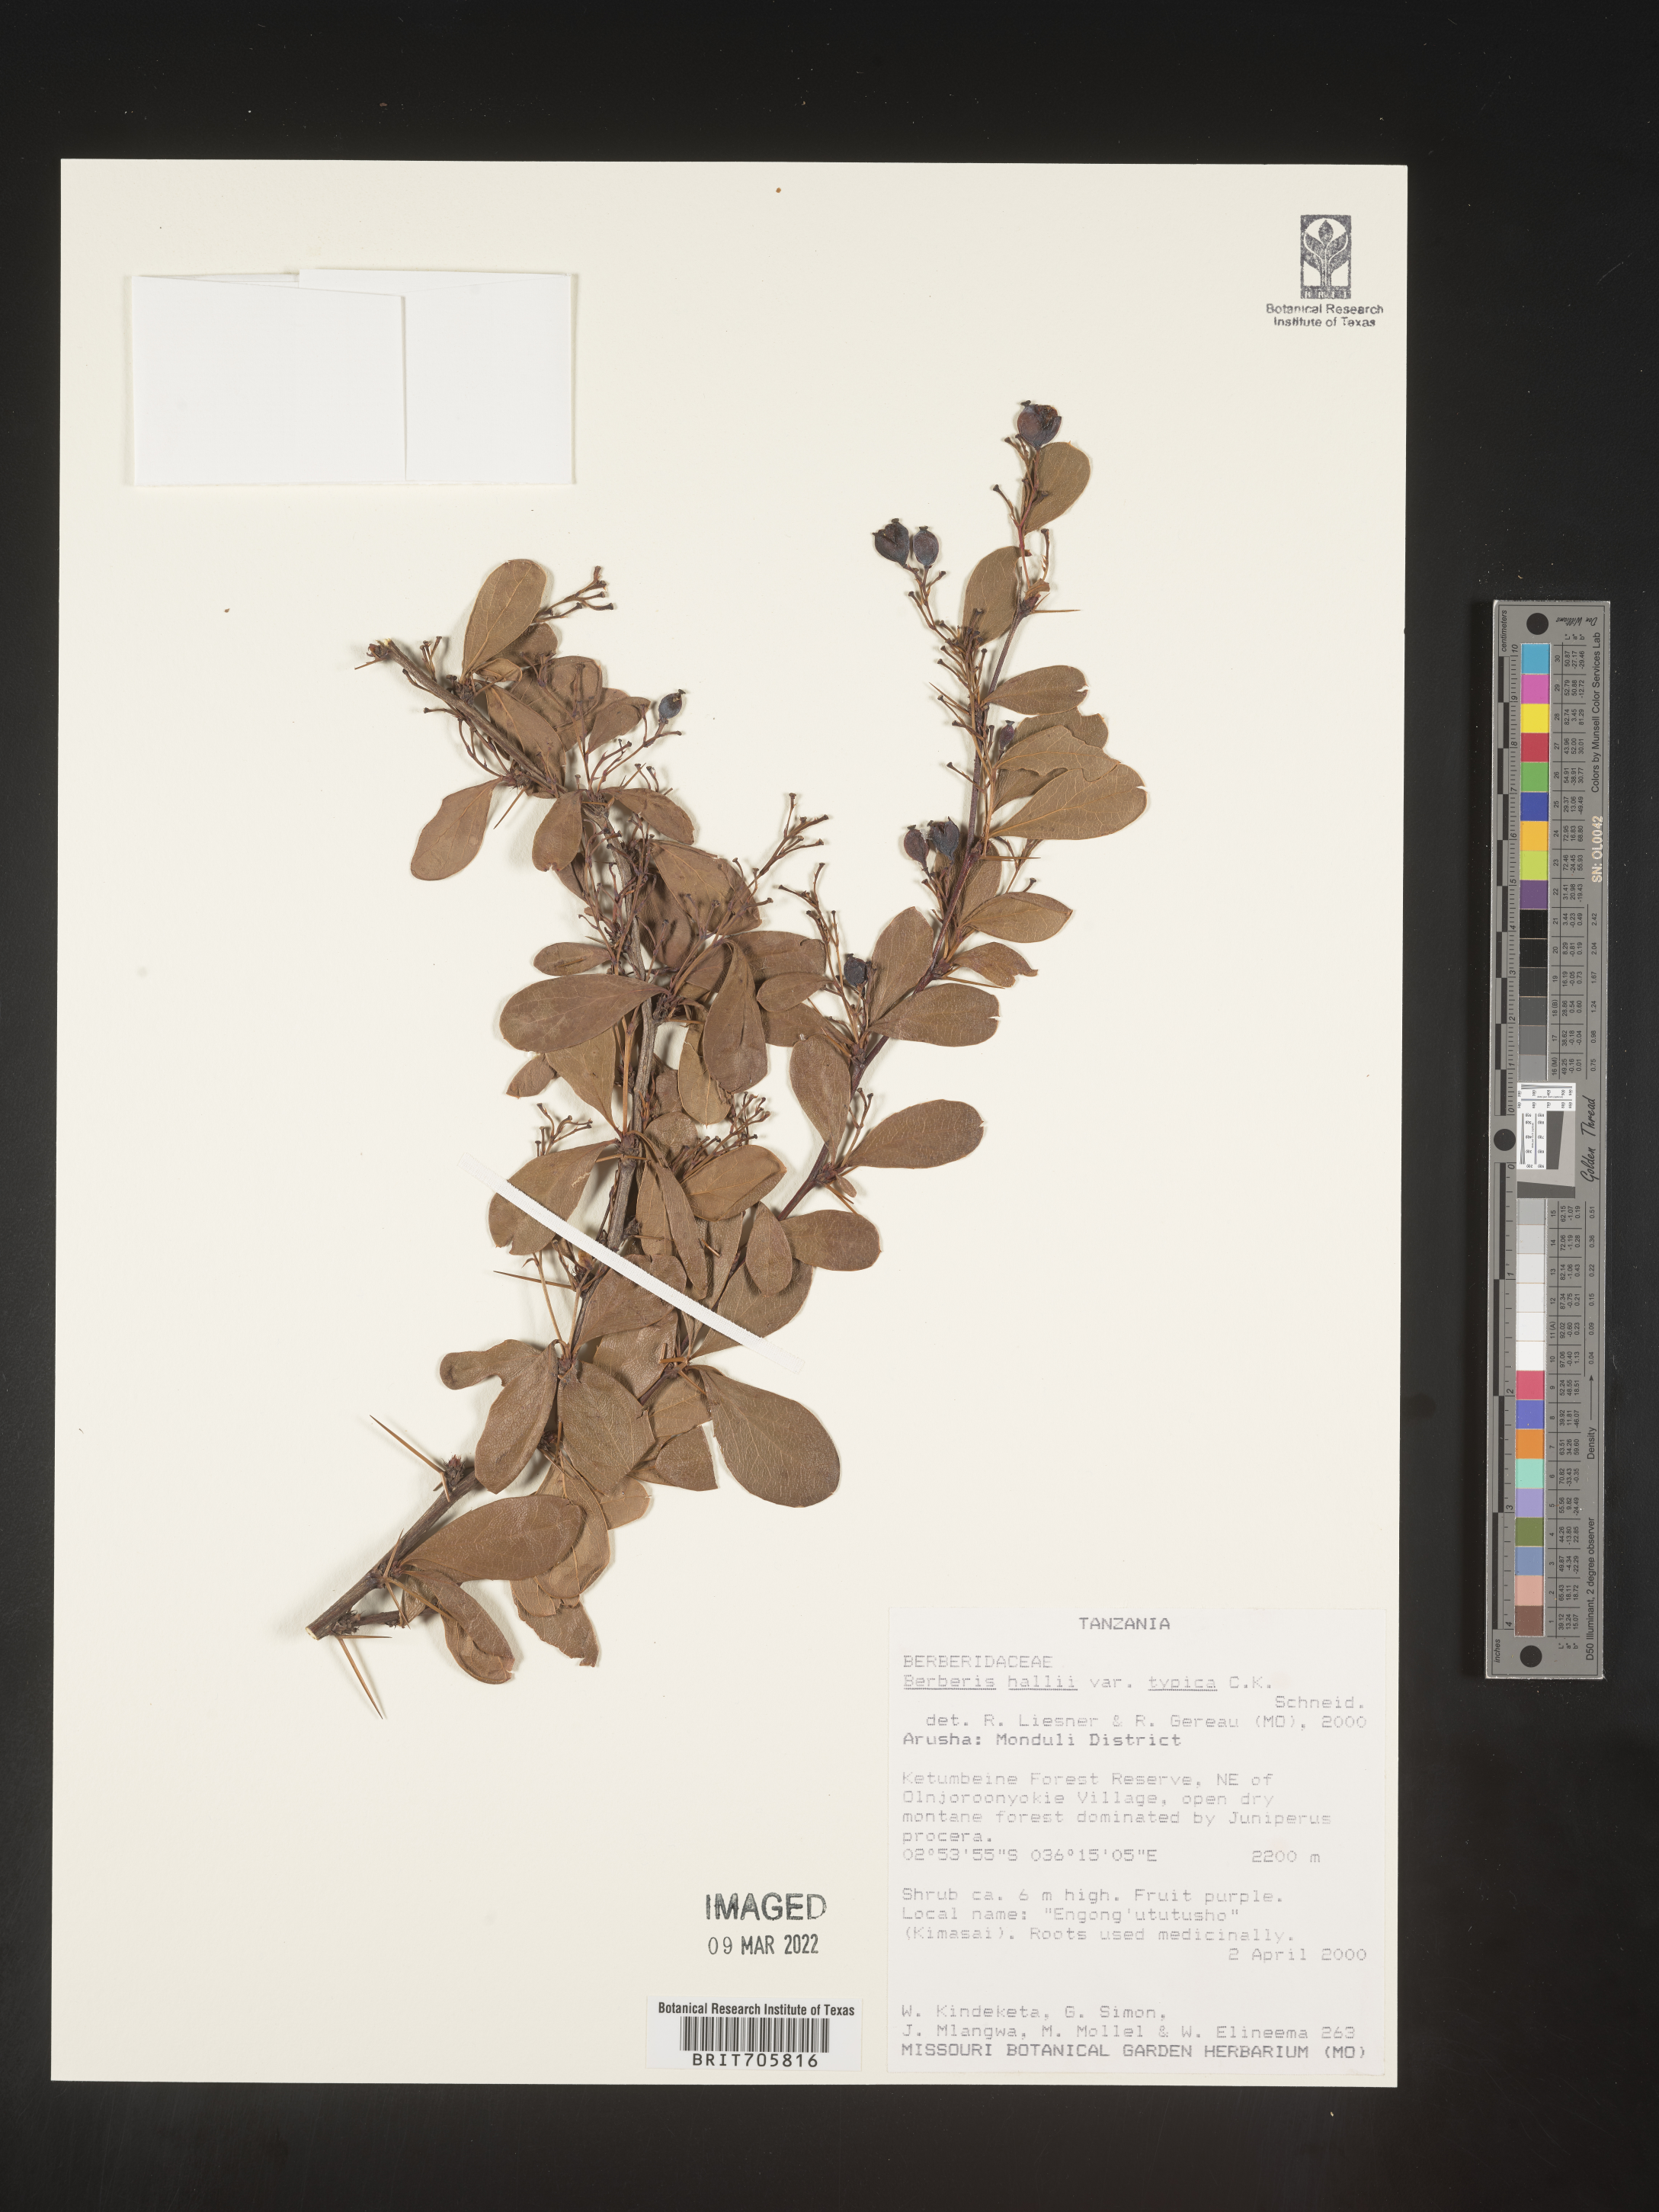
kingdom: Plantae
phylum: Tracheophyta
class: Magnoliopsida
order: Ranunculales
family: Berberidaceae
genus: Berberis
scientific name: Berberis
